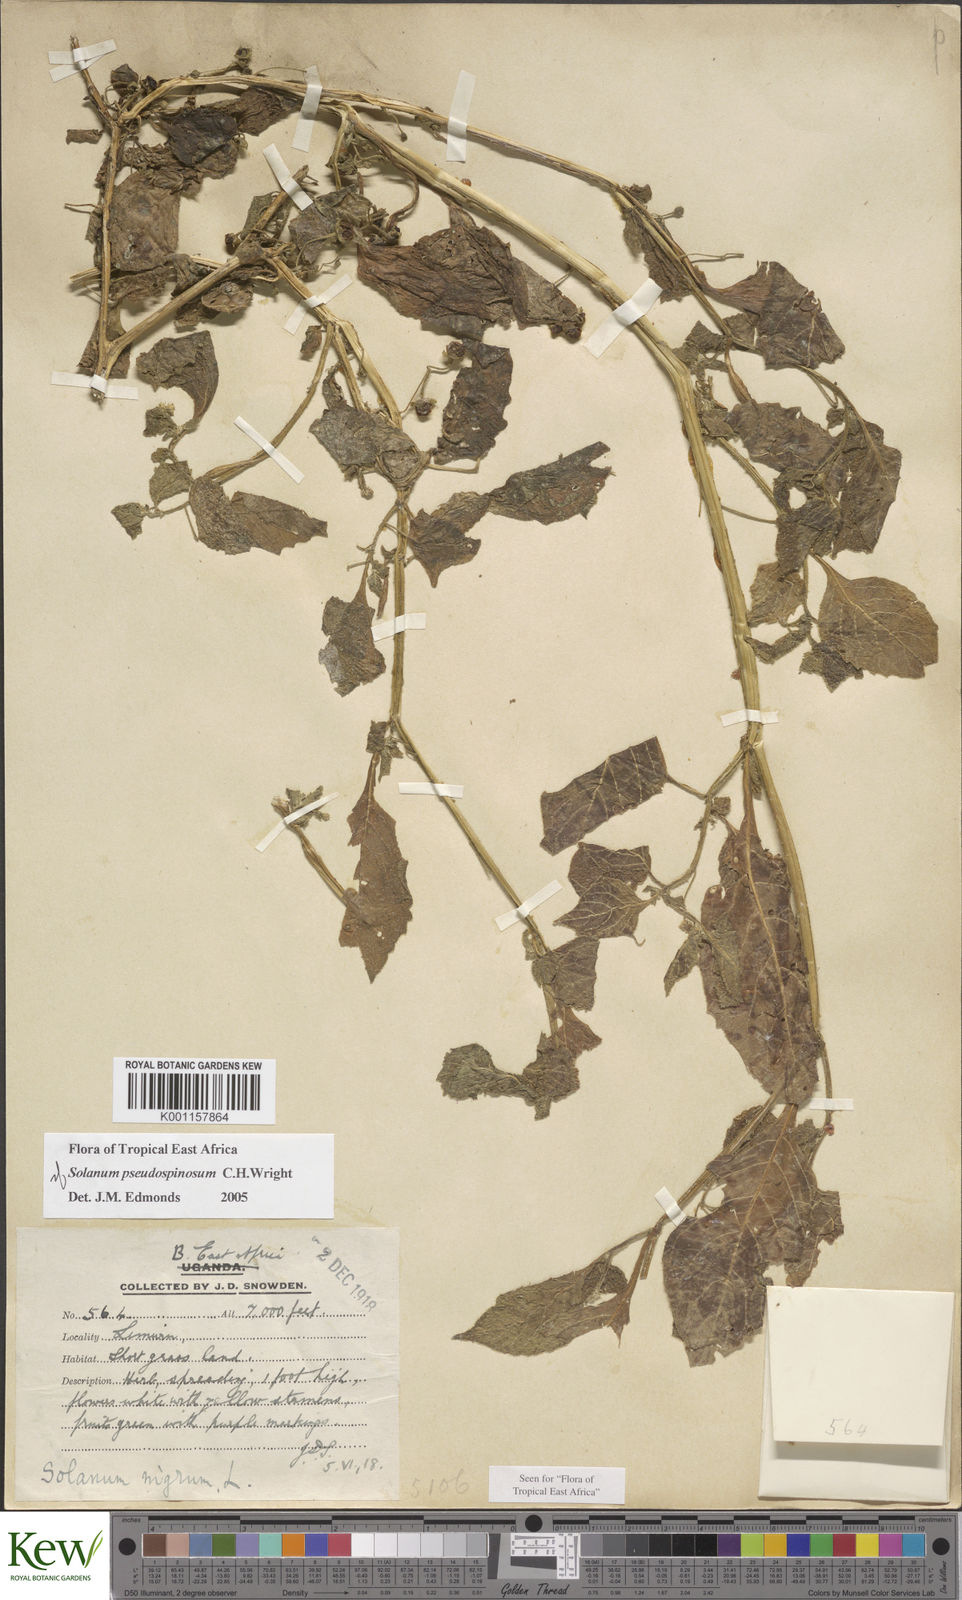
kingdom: Plantae
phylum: Tracheophyta
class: Magnoliopsida
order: Solanales
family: Solanaceae
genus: Solanum
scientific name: Solanum pseudospinosum
